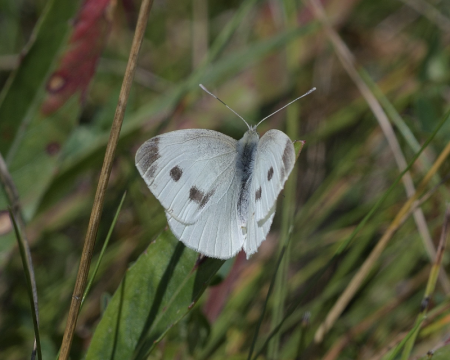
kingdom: Animalia
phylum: Arthropoda
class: Insecta
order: Lepidoptera
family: Pieridae
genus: Pieris
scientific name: Pieris rapae
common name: Cabbage White
